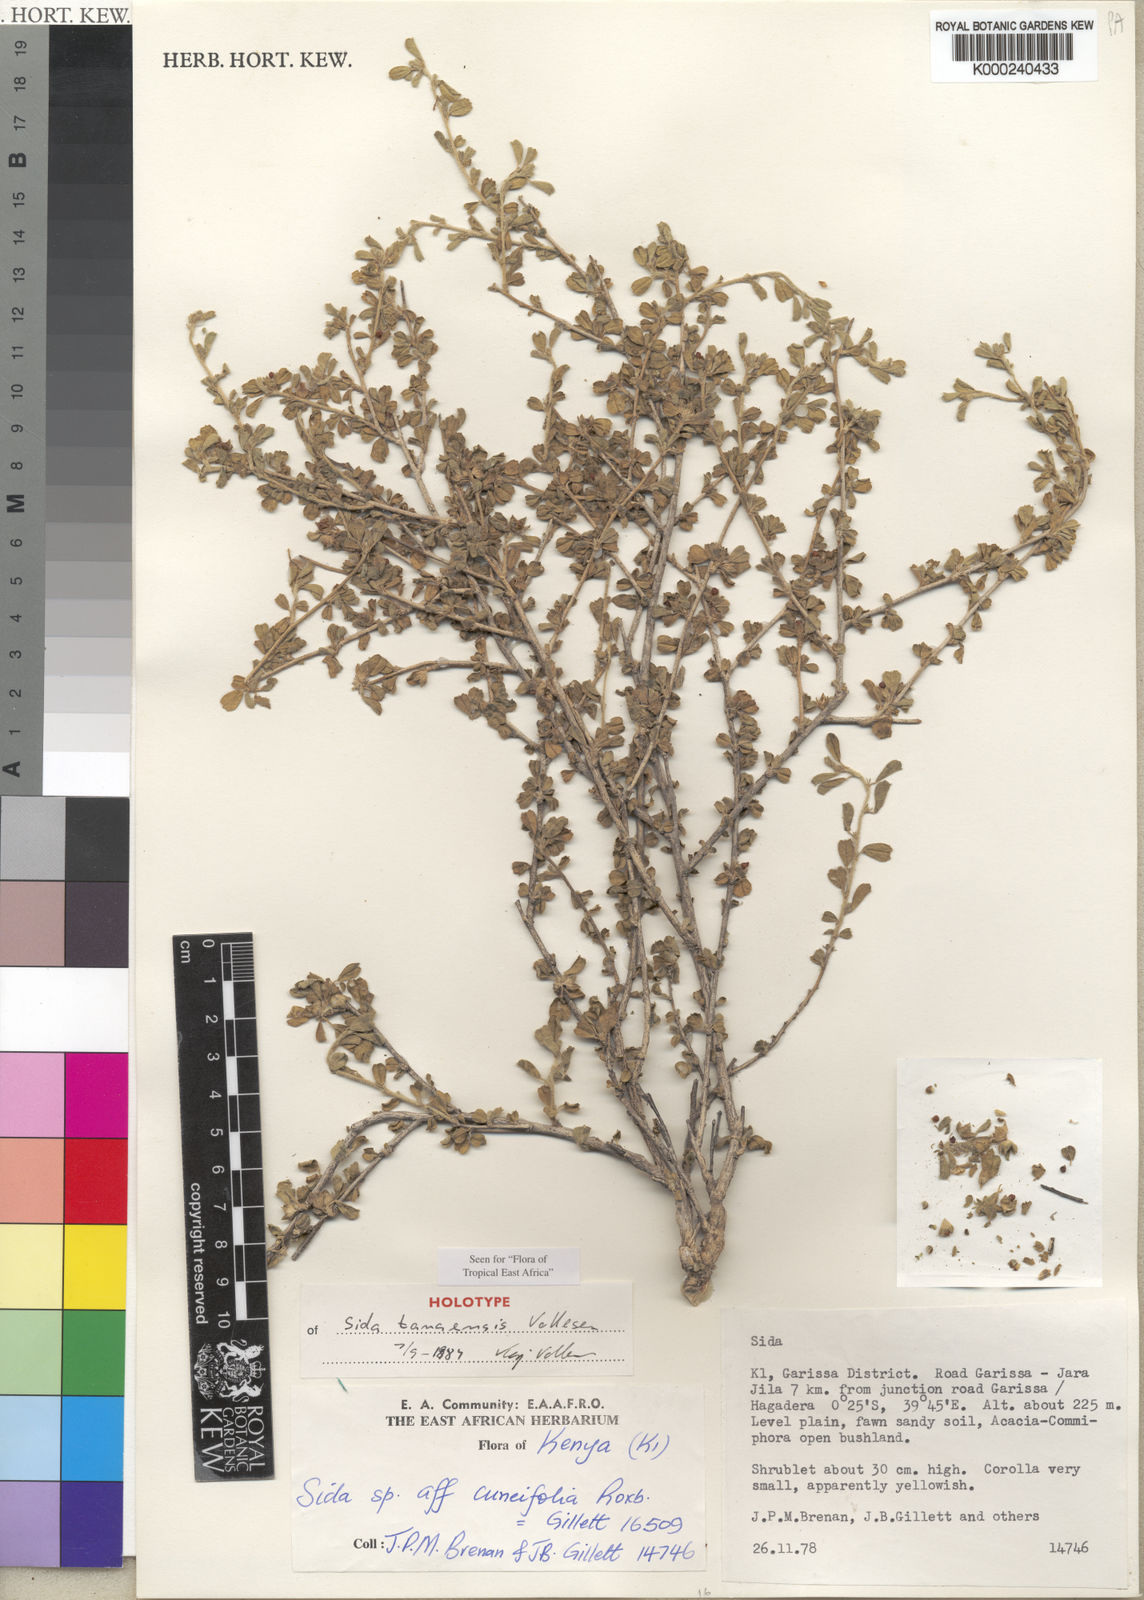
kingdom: Plantae
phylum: Tracheophyta
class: Magnoliopsida
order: Malvales
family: Malvaceae
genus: Sida
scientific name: Sida tanaensis
